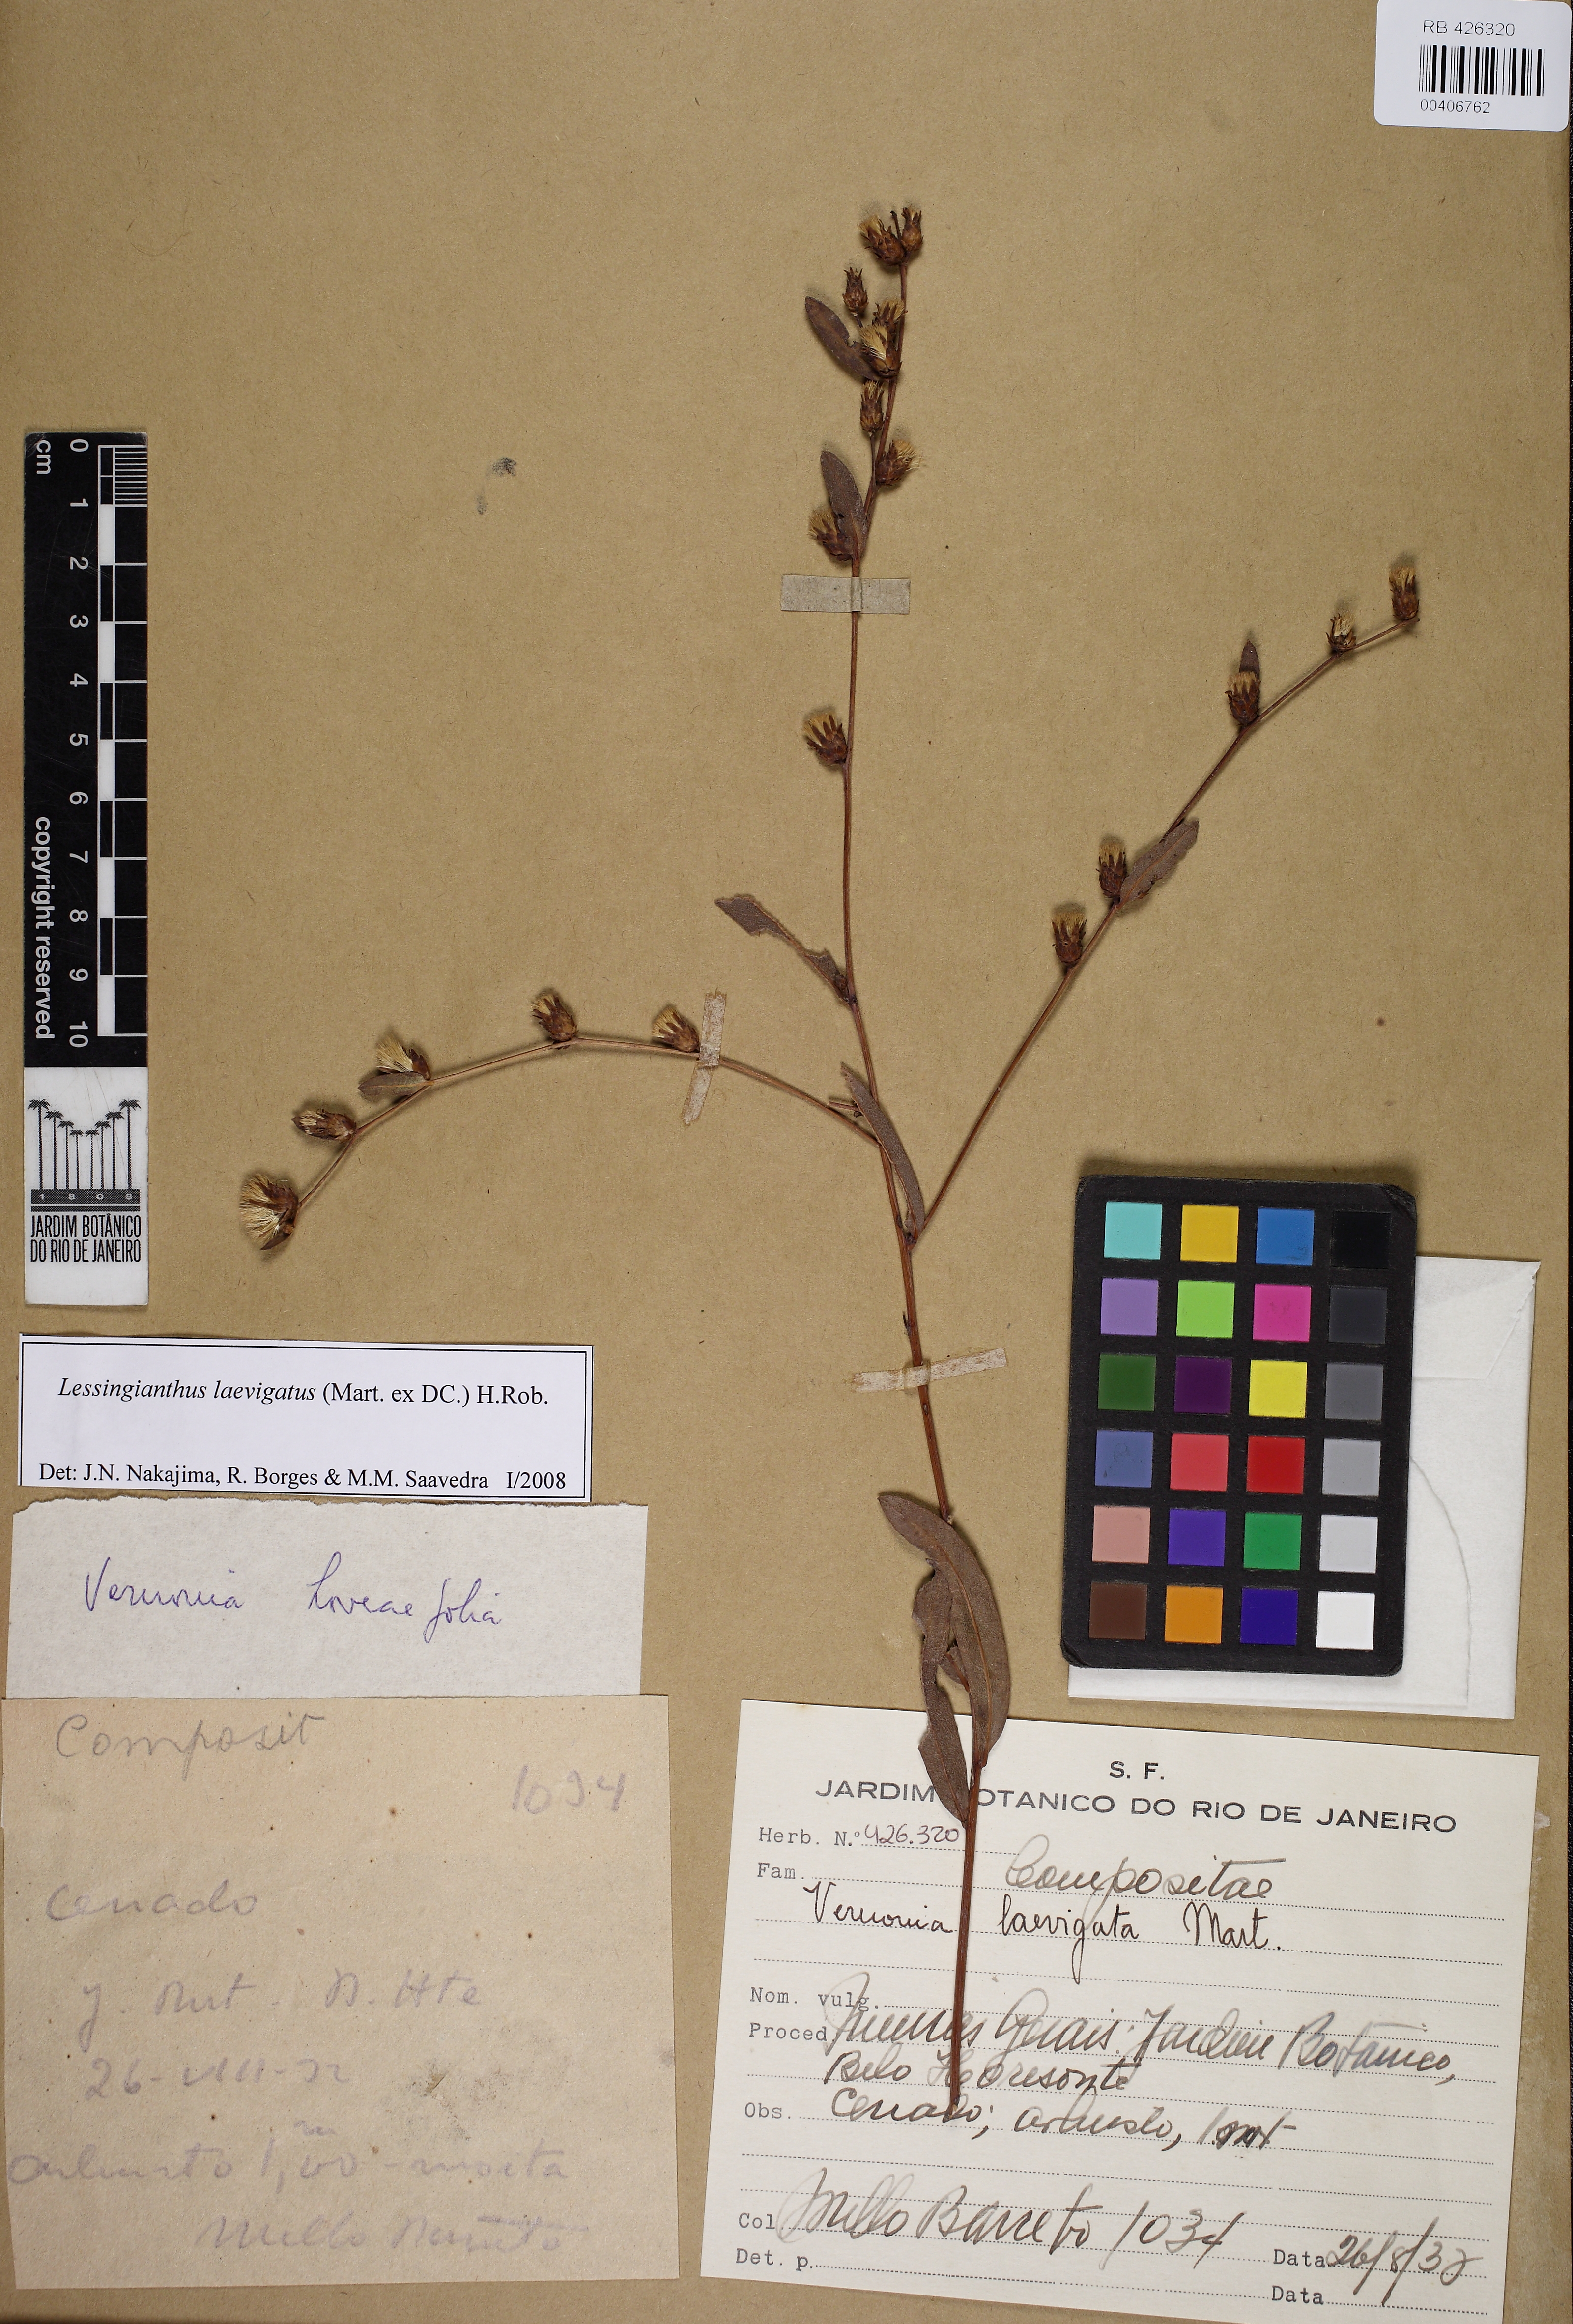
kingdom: Plantae
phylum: Tracheophyta
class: Magnoliopsida
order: Asterales
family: Asteraceae
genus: Lessingianthus
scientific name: Lessingianthus laevigatus
